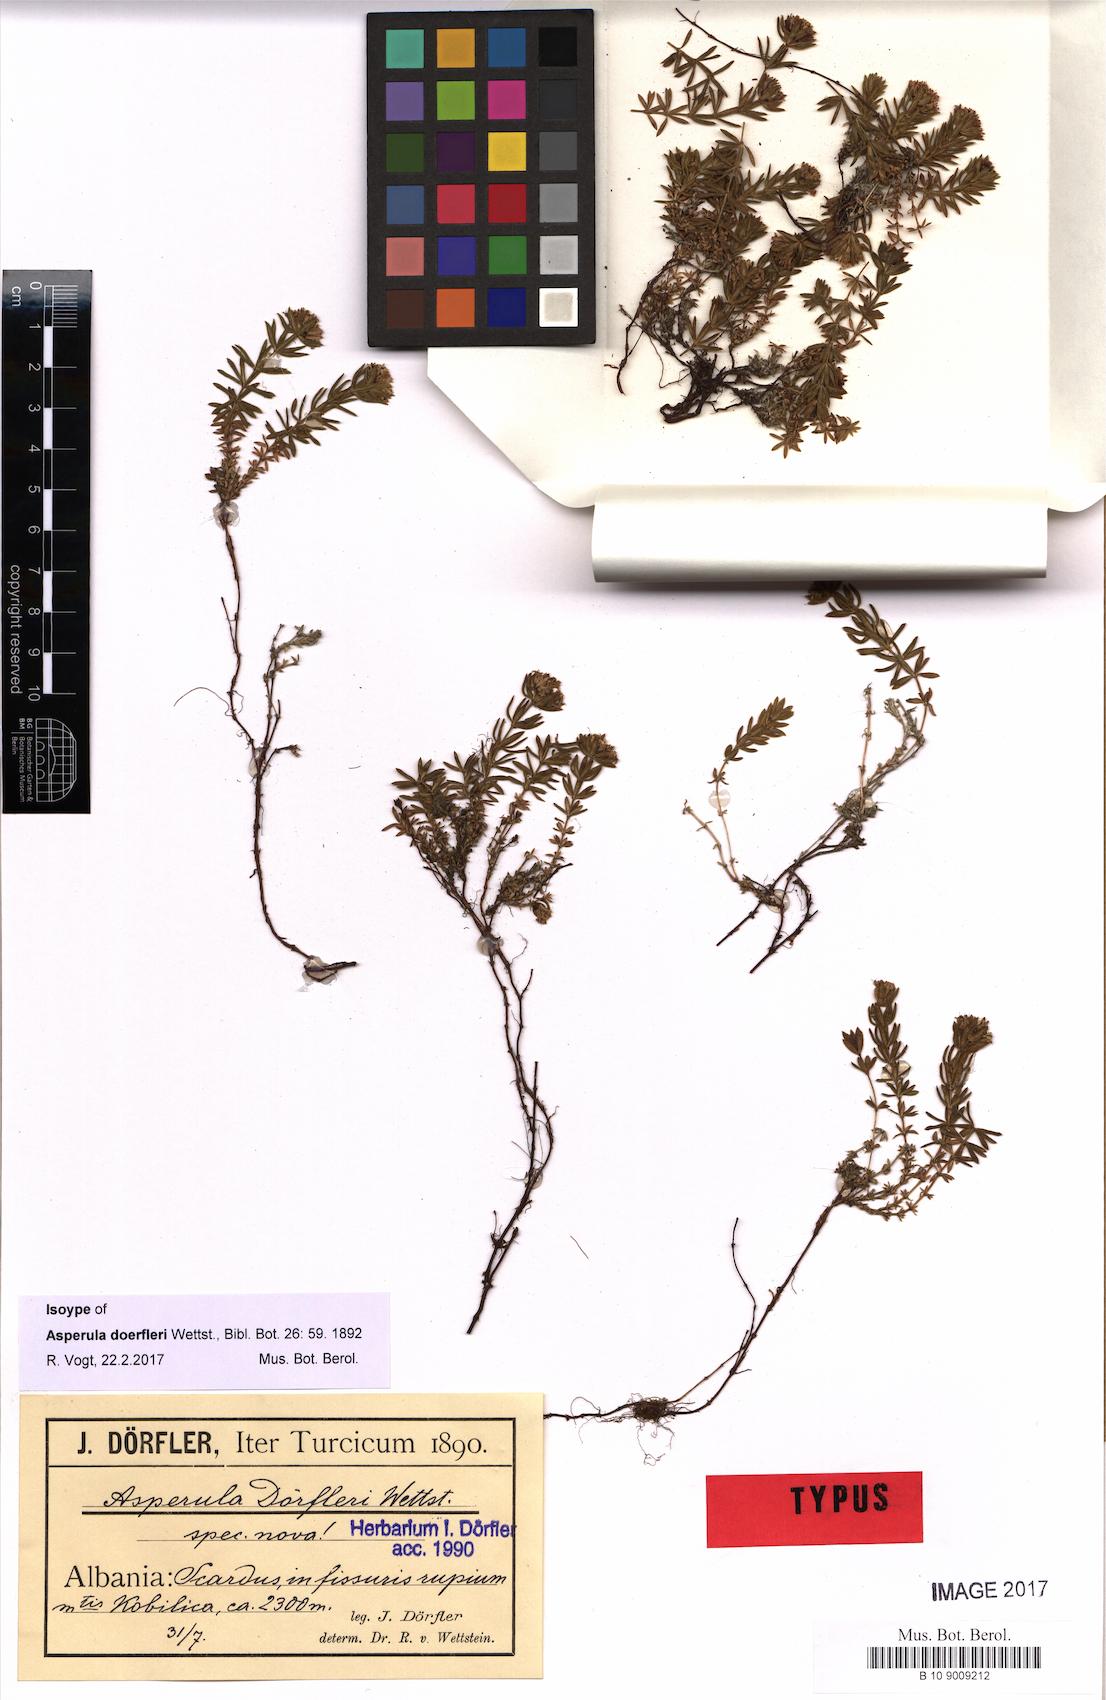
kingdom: Plantae
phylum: Tracheophyta
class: Magnoliopsida
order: Gentianales
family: Rubiaceae
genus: Hexaphylla
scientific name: Hexaphylla doerfleri
